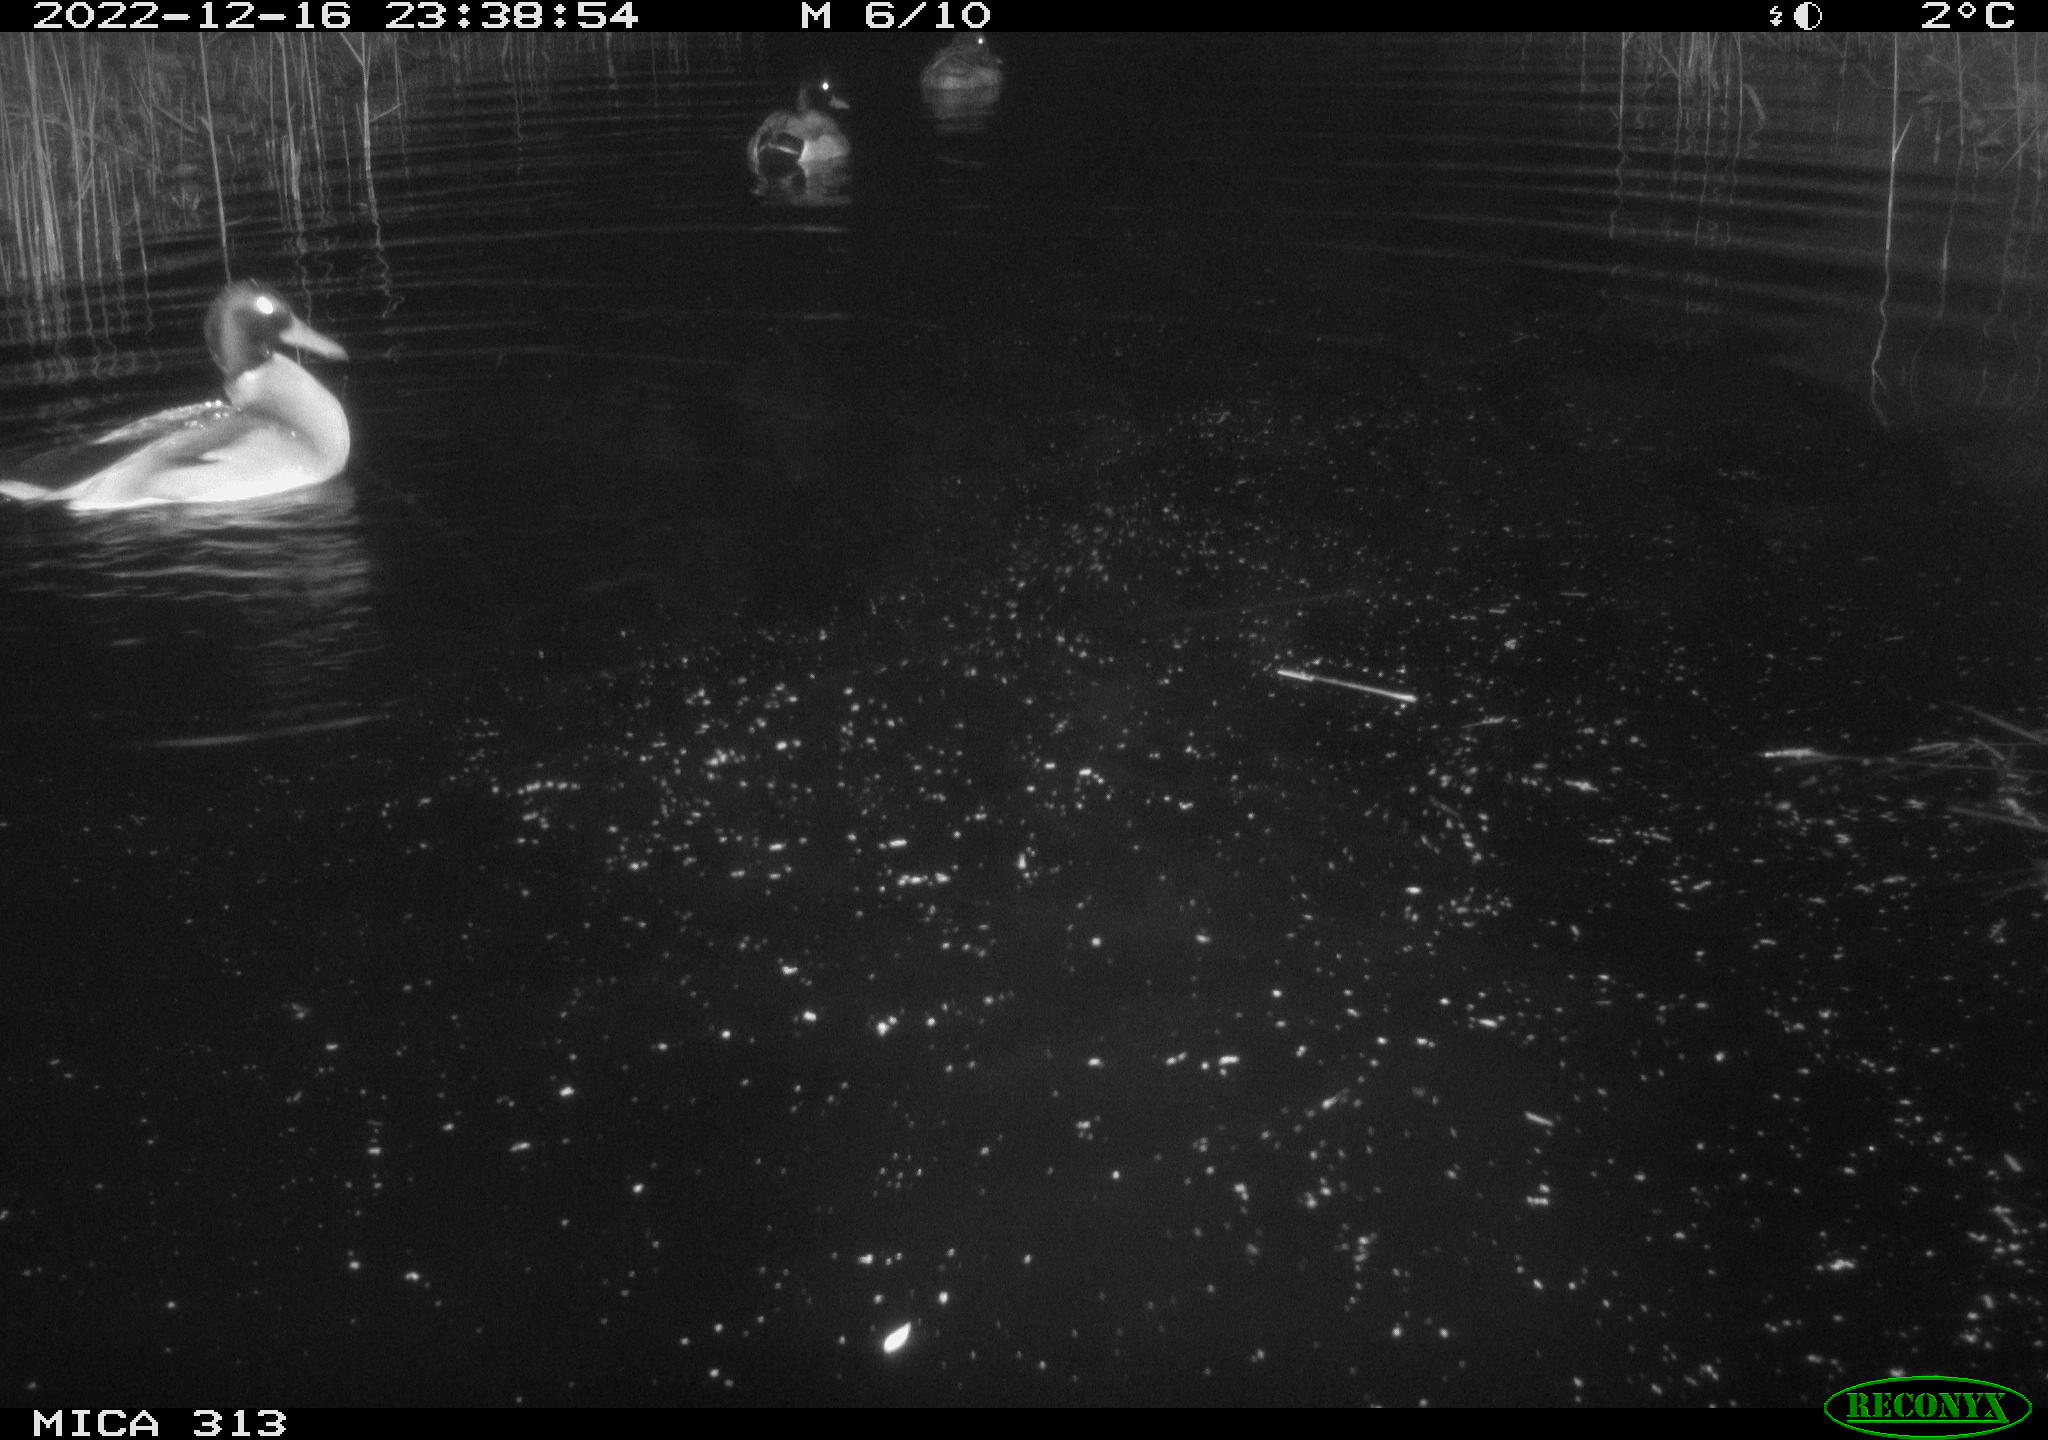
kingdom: Animalia
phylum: Chordata
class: Aves
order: Anseriformes
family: Anatidae
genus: Anas
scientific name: Anas
